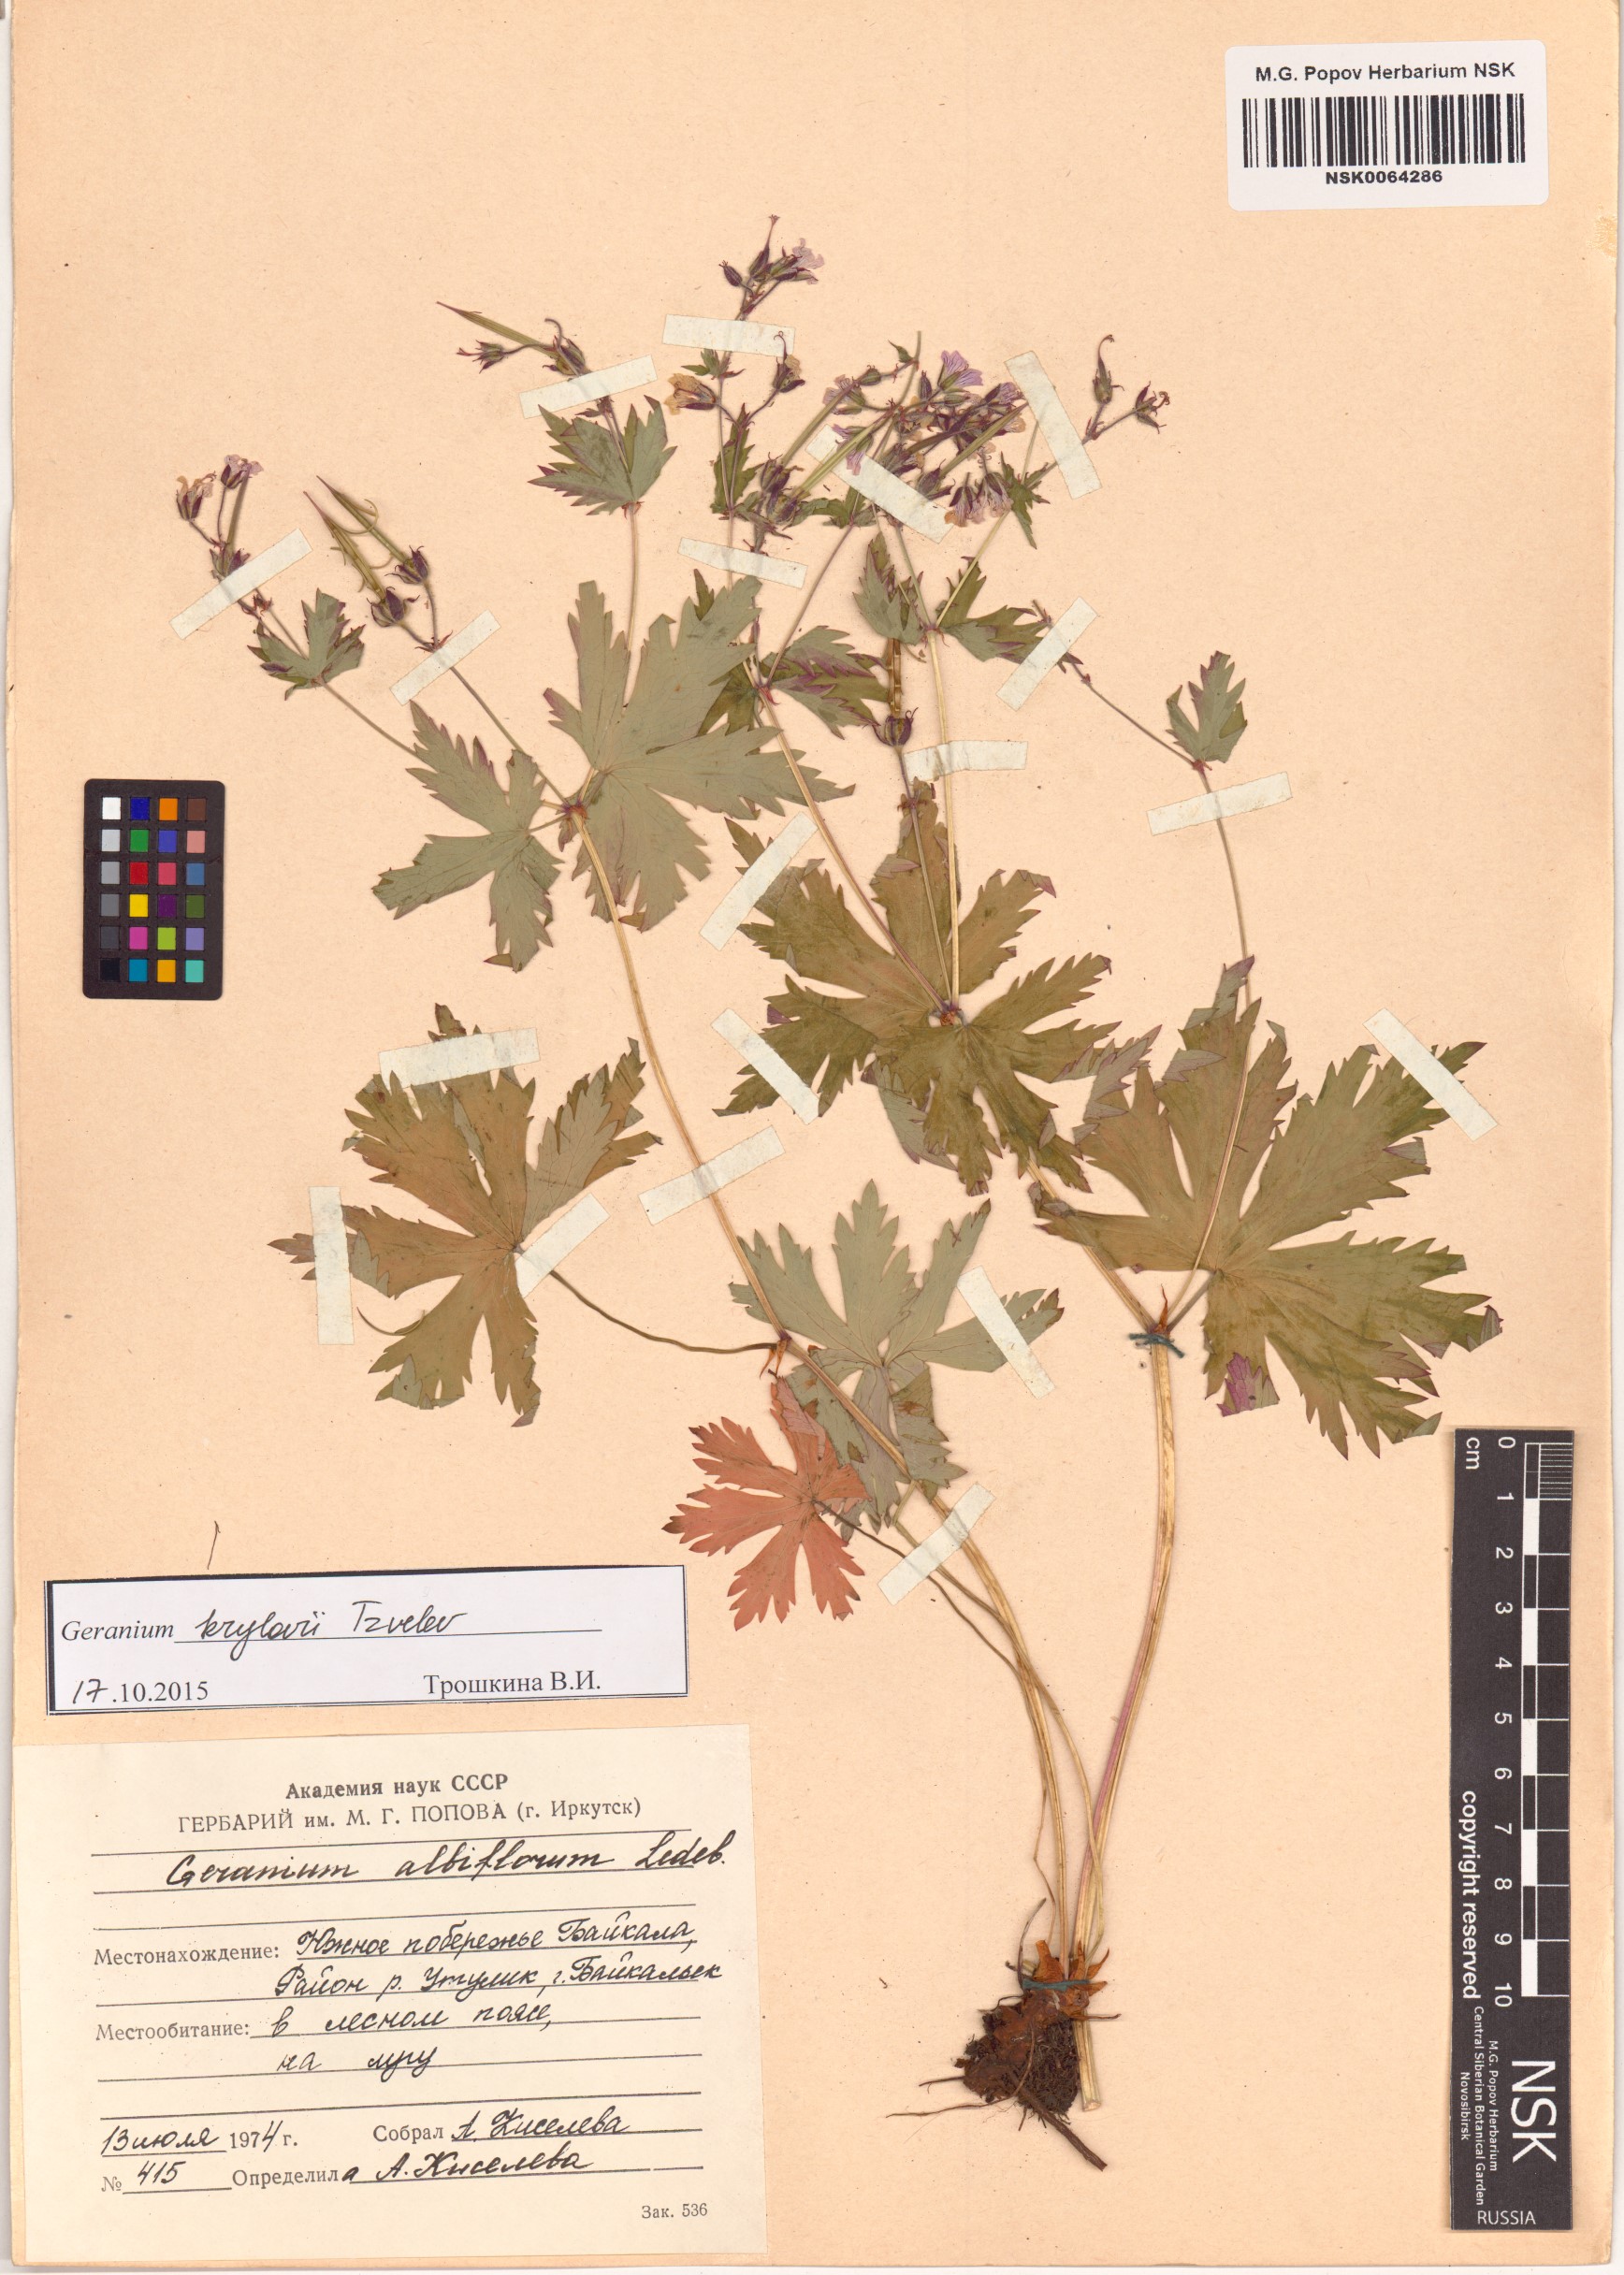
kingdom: Plantae
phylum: Tracheophyta
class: Magnoliopsida
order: Geraniales
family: Geraniaceae
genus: Geranium
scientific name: Geranium sylvaticum
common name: Wood crane's-bill
